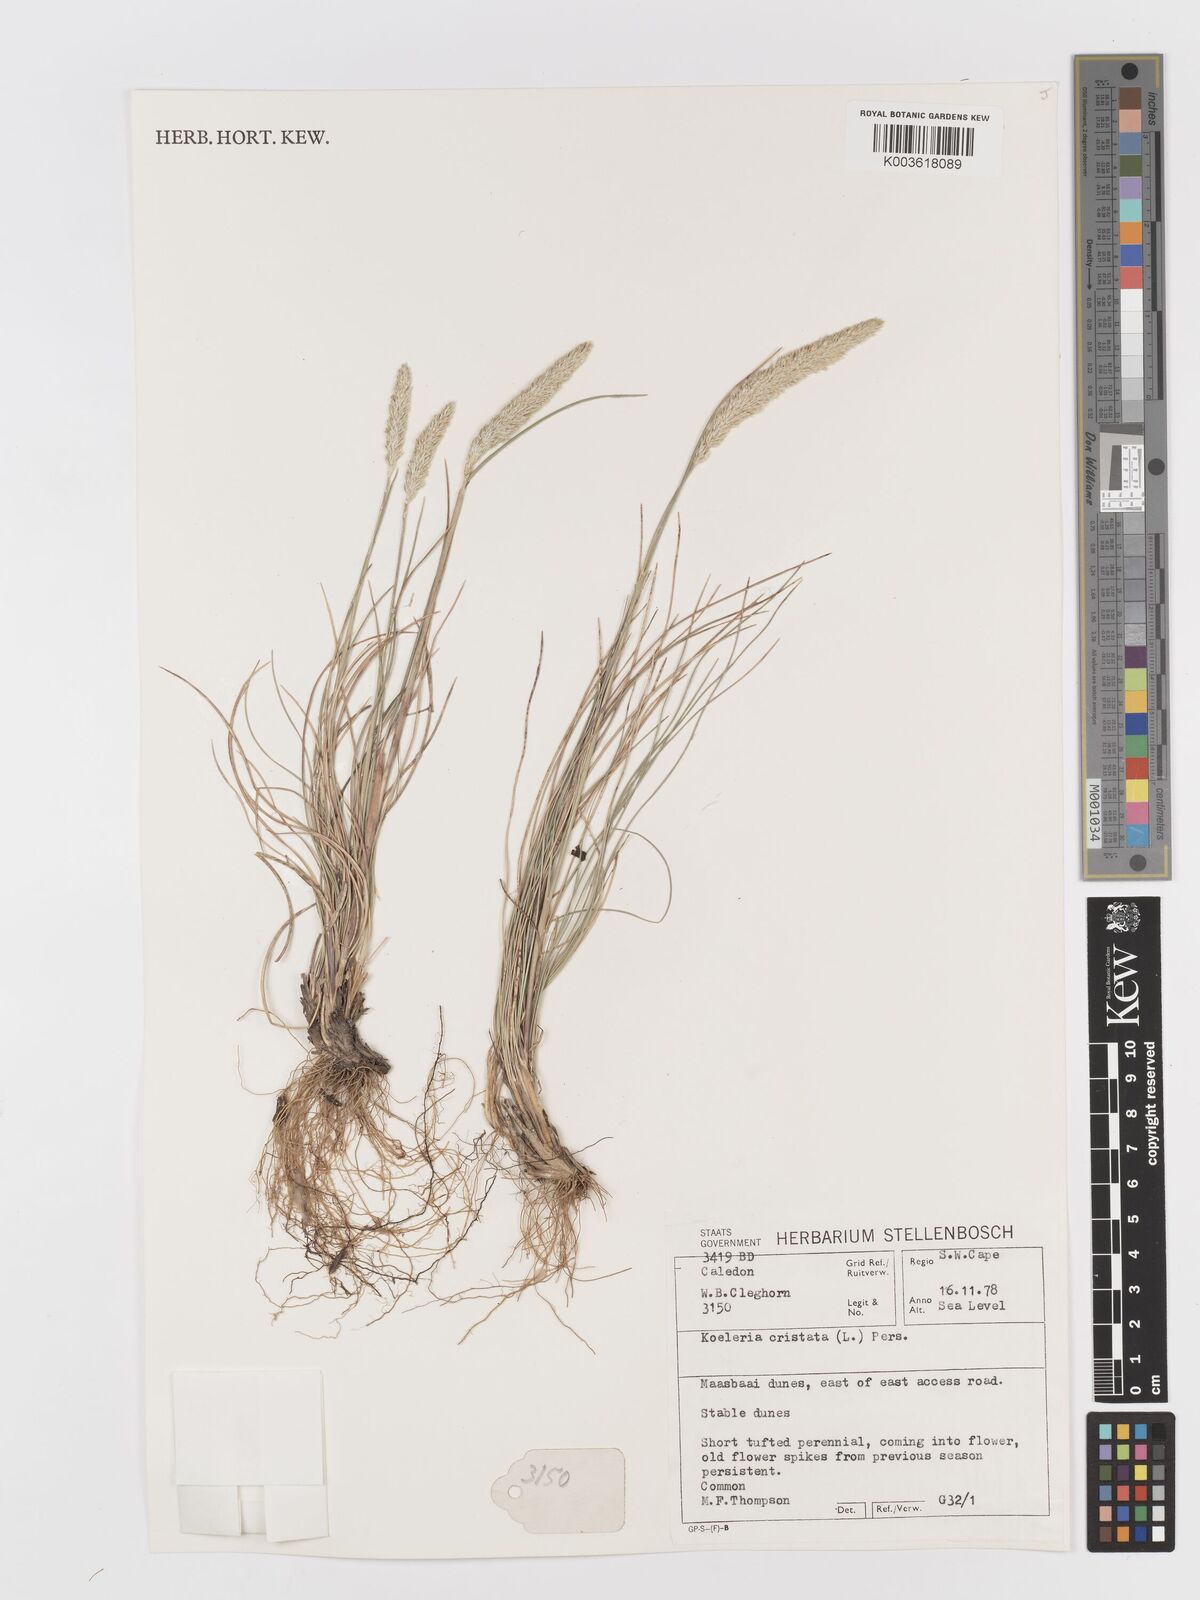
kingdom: Plantae
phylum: Tracheophyta
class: Liliopsida
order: Poales
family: Poaceae
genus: Koeleria
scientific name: Koeleria capensis
